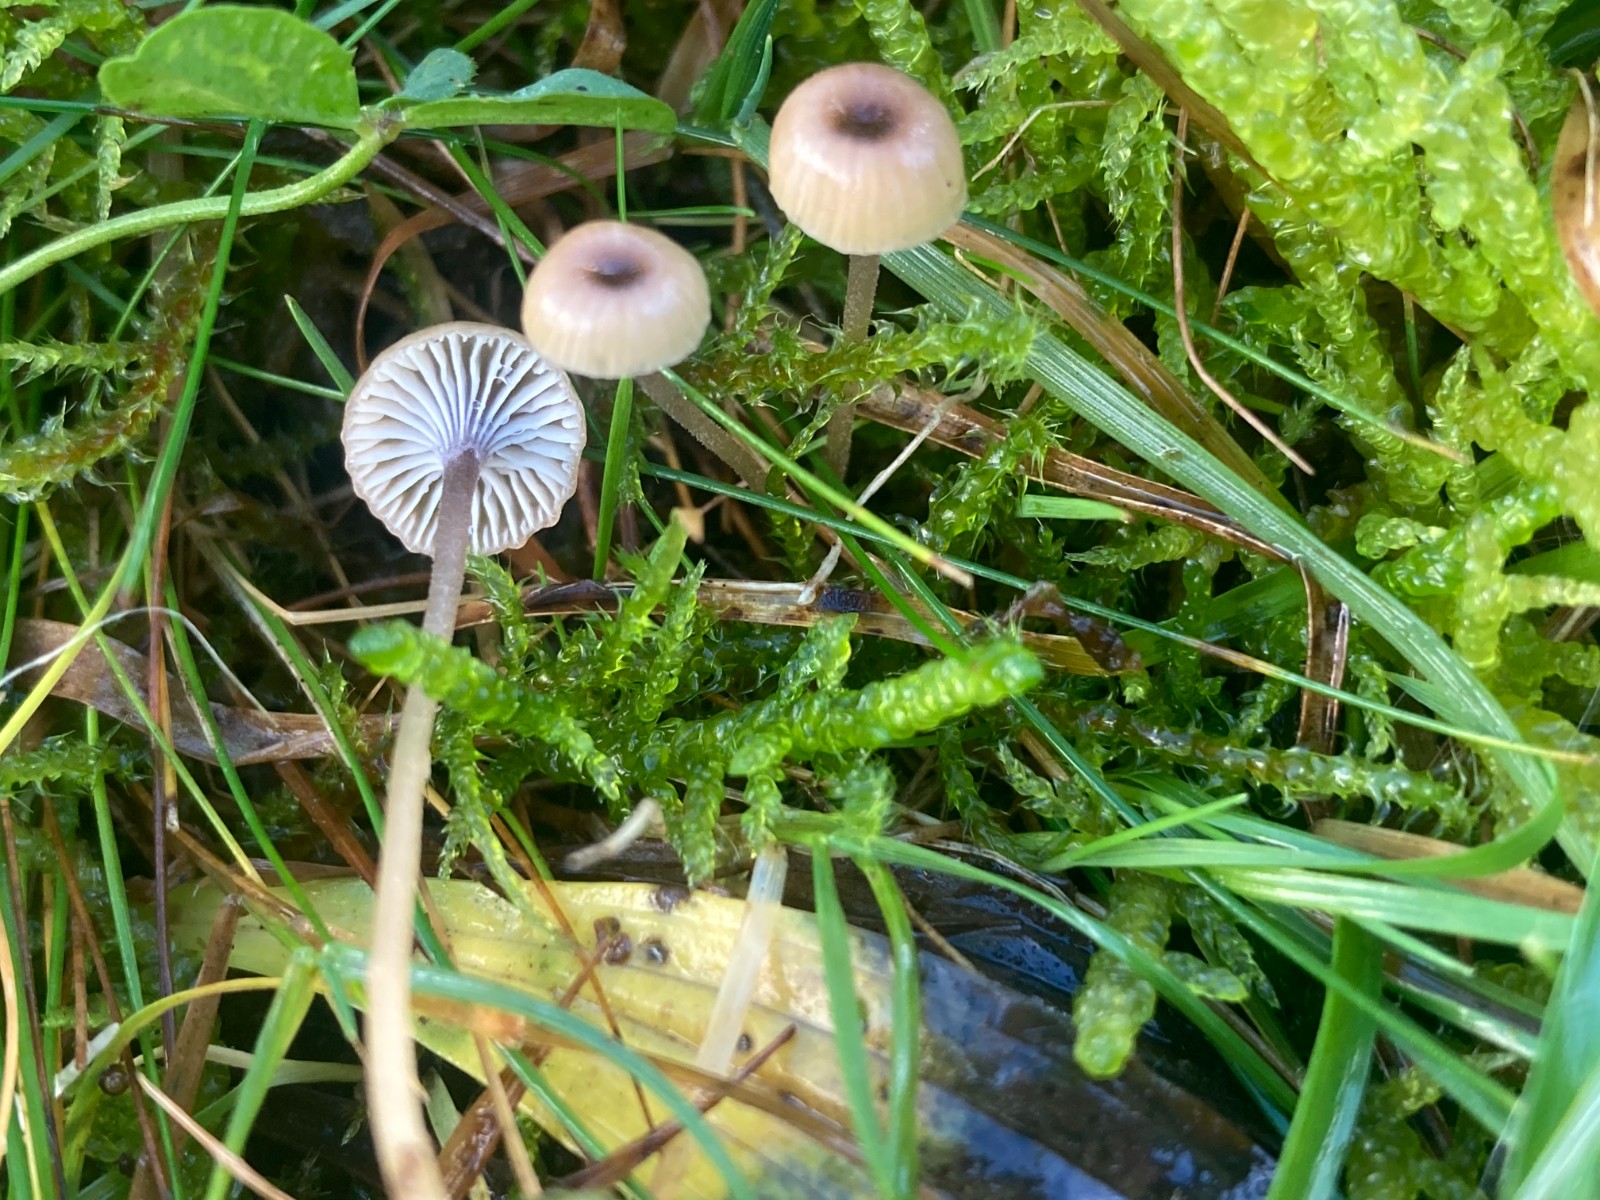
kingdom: Fungi
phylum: Basidiomycota
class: Agaricomycetes
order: Hymenochaetales
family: Rickenellaceae
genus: Rickenella
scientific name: Rickenella swartzii
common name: finstokket mosnavlehat
